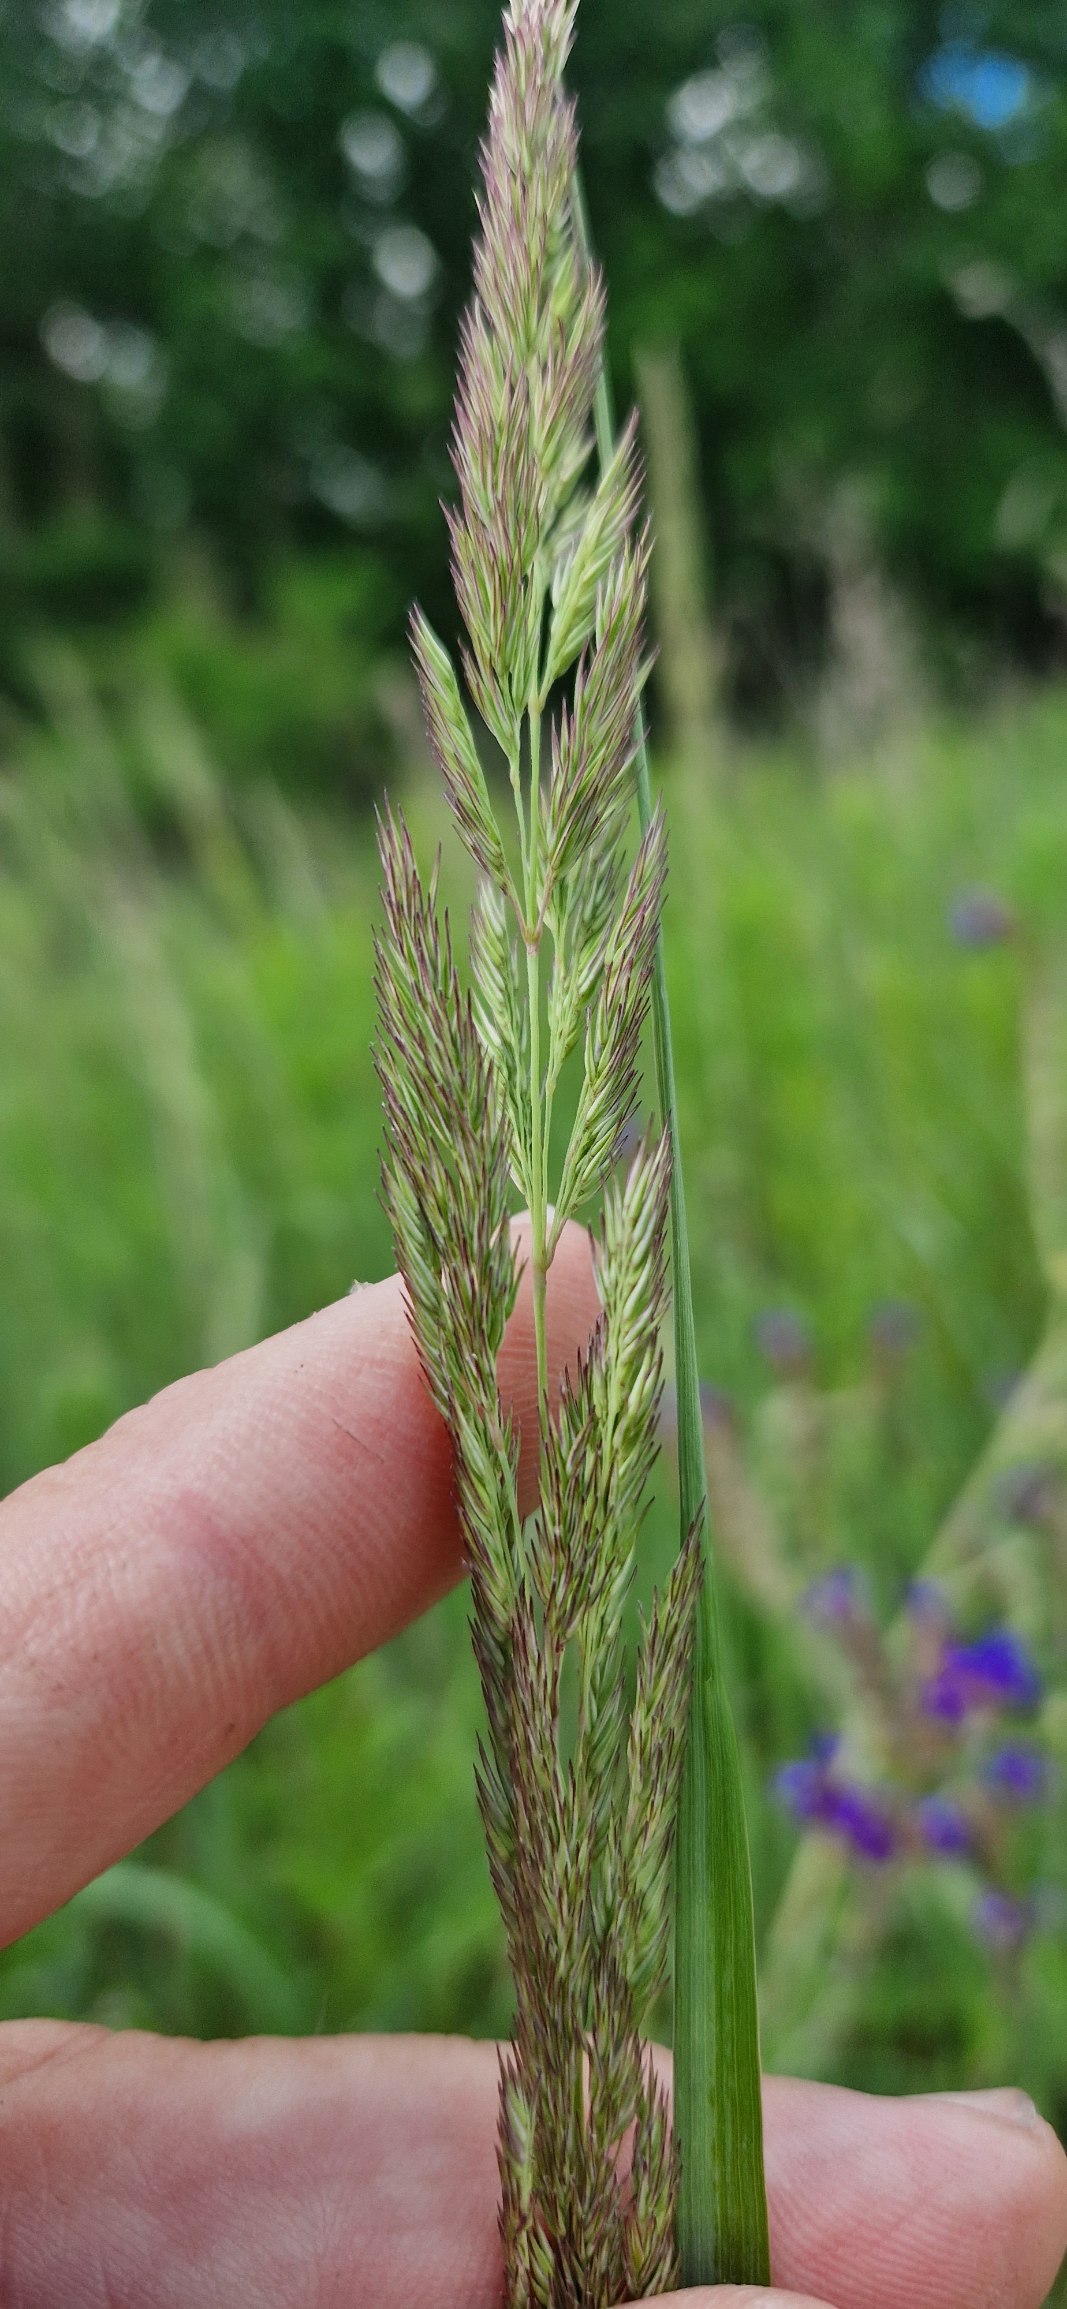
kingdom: Plantae
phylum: Tracheophyta
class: Liliopsida
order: Poales
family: Poaceae
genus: Calamagrostis
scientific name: Calamagrostis epigejos
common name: Bjerg-rørhvene
